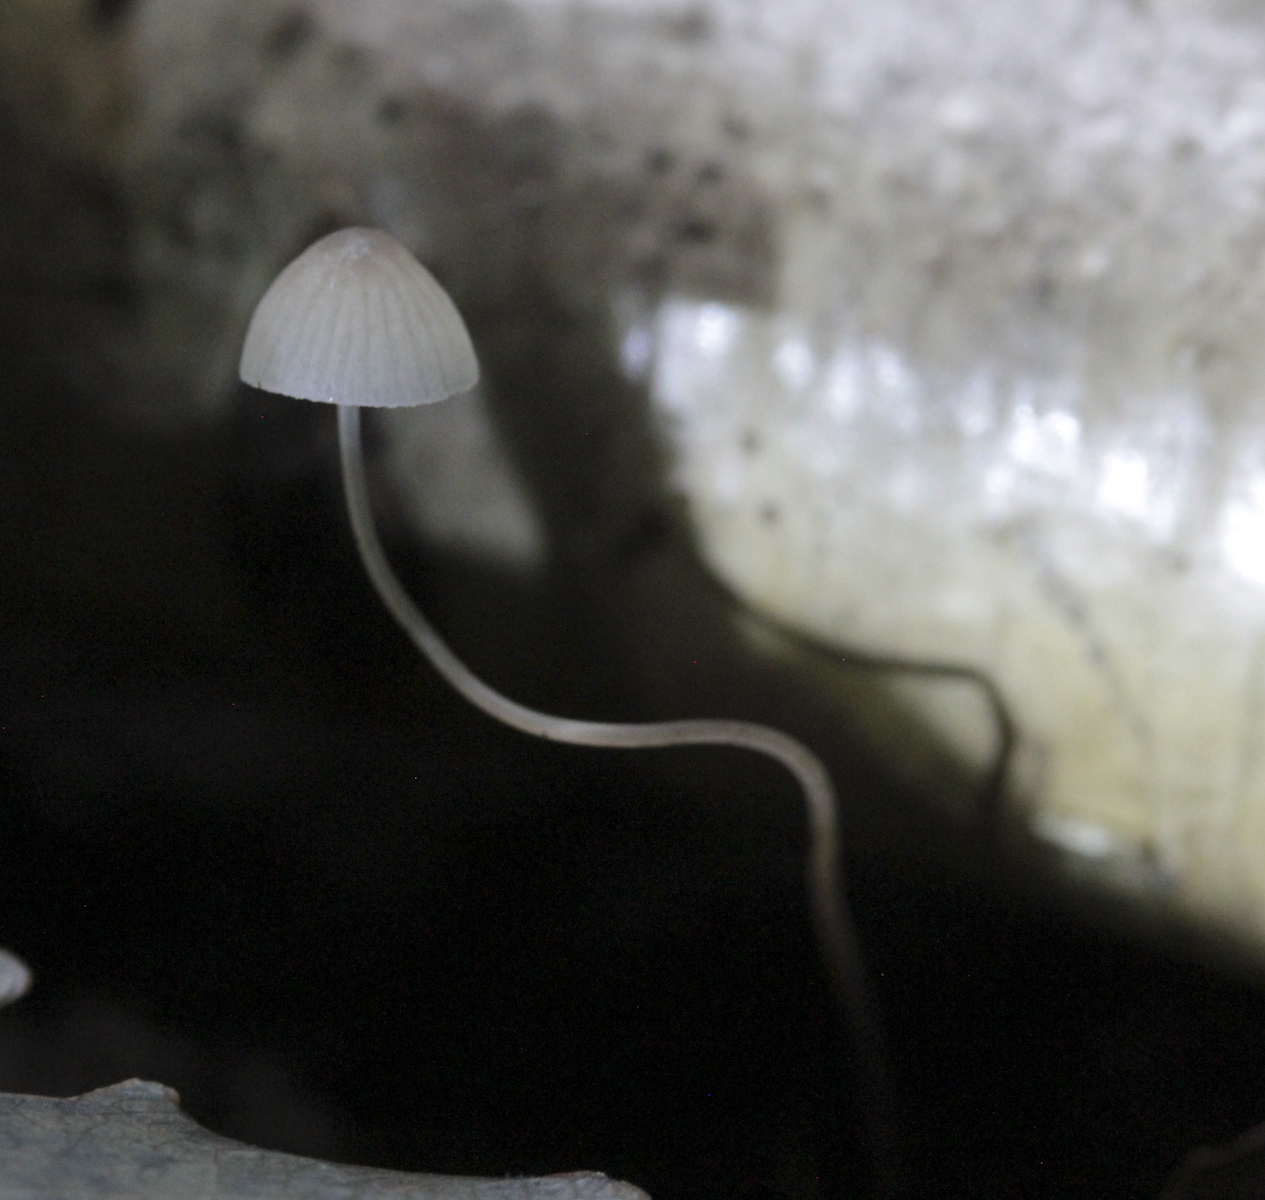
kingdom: Fungi
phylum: Basidiomycota
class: Agaricomycetes
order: Agaricales
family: Mycenaceae
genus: Mycena
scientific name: Mycena
